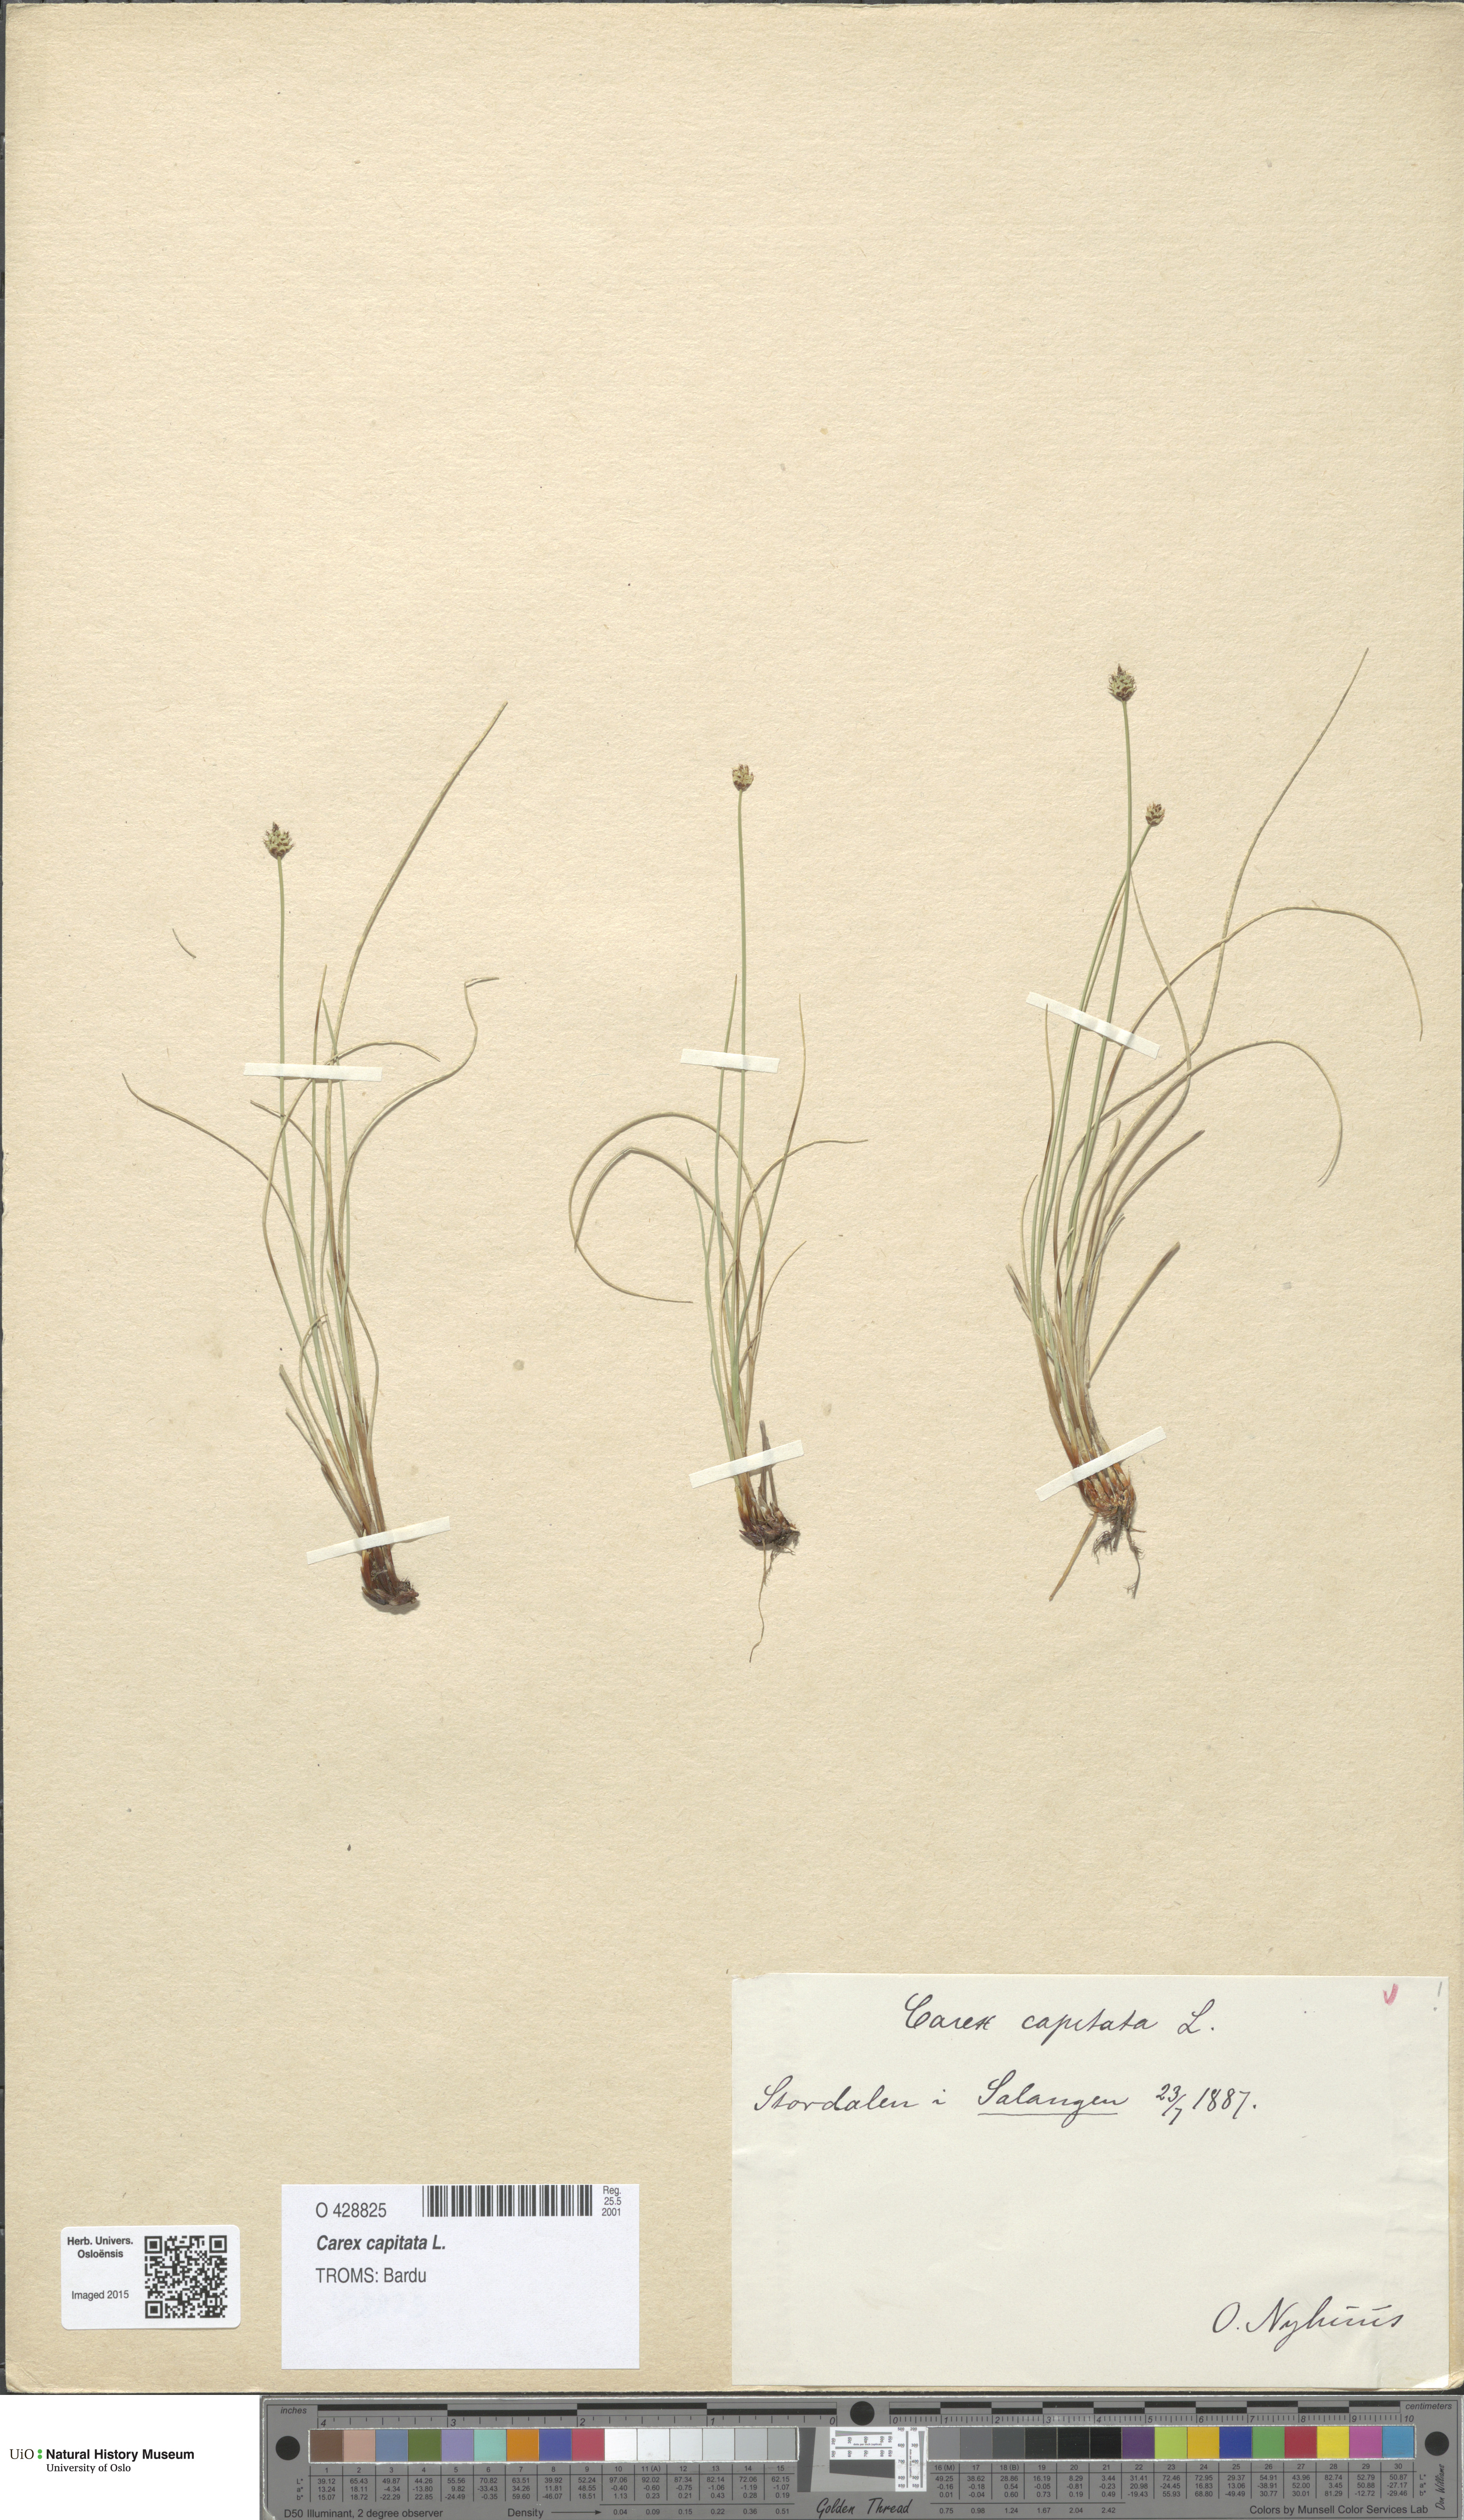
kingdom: Plantae
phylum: Tracheophyta
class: Liliopsida
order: Poales
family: Cyperaceae
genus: Carex
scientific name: Carex capitata
